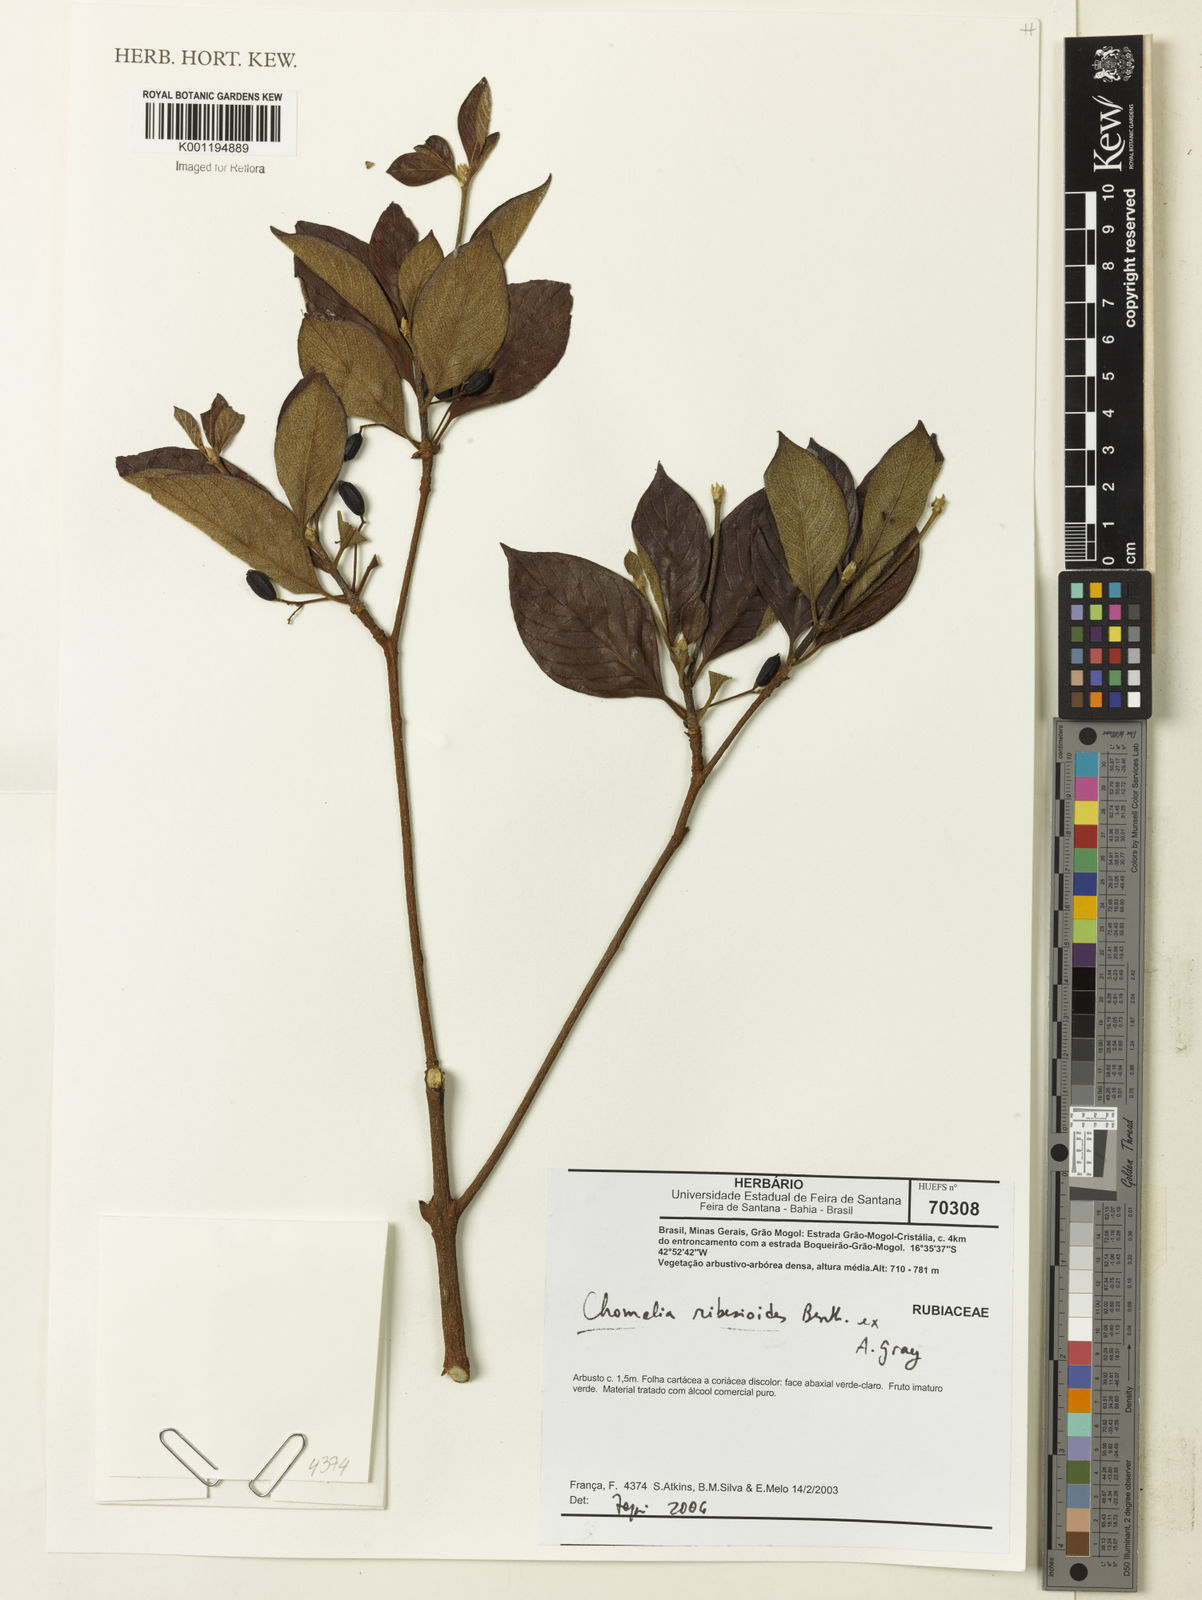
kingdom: Plantae
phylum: Tracheophyta
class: Magnoliopsida
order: Gentianales
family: Rubiaceae
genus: Chomelia
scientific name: Chomelia ribesioides
